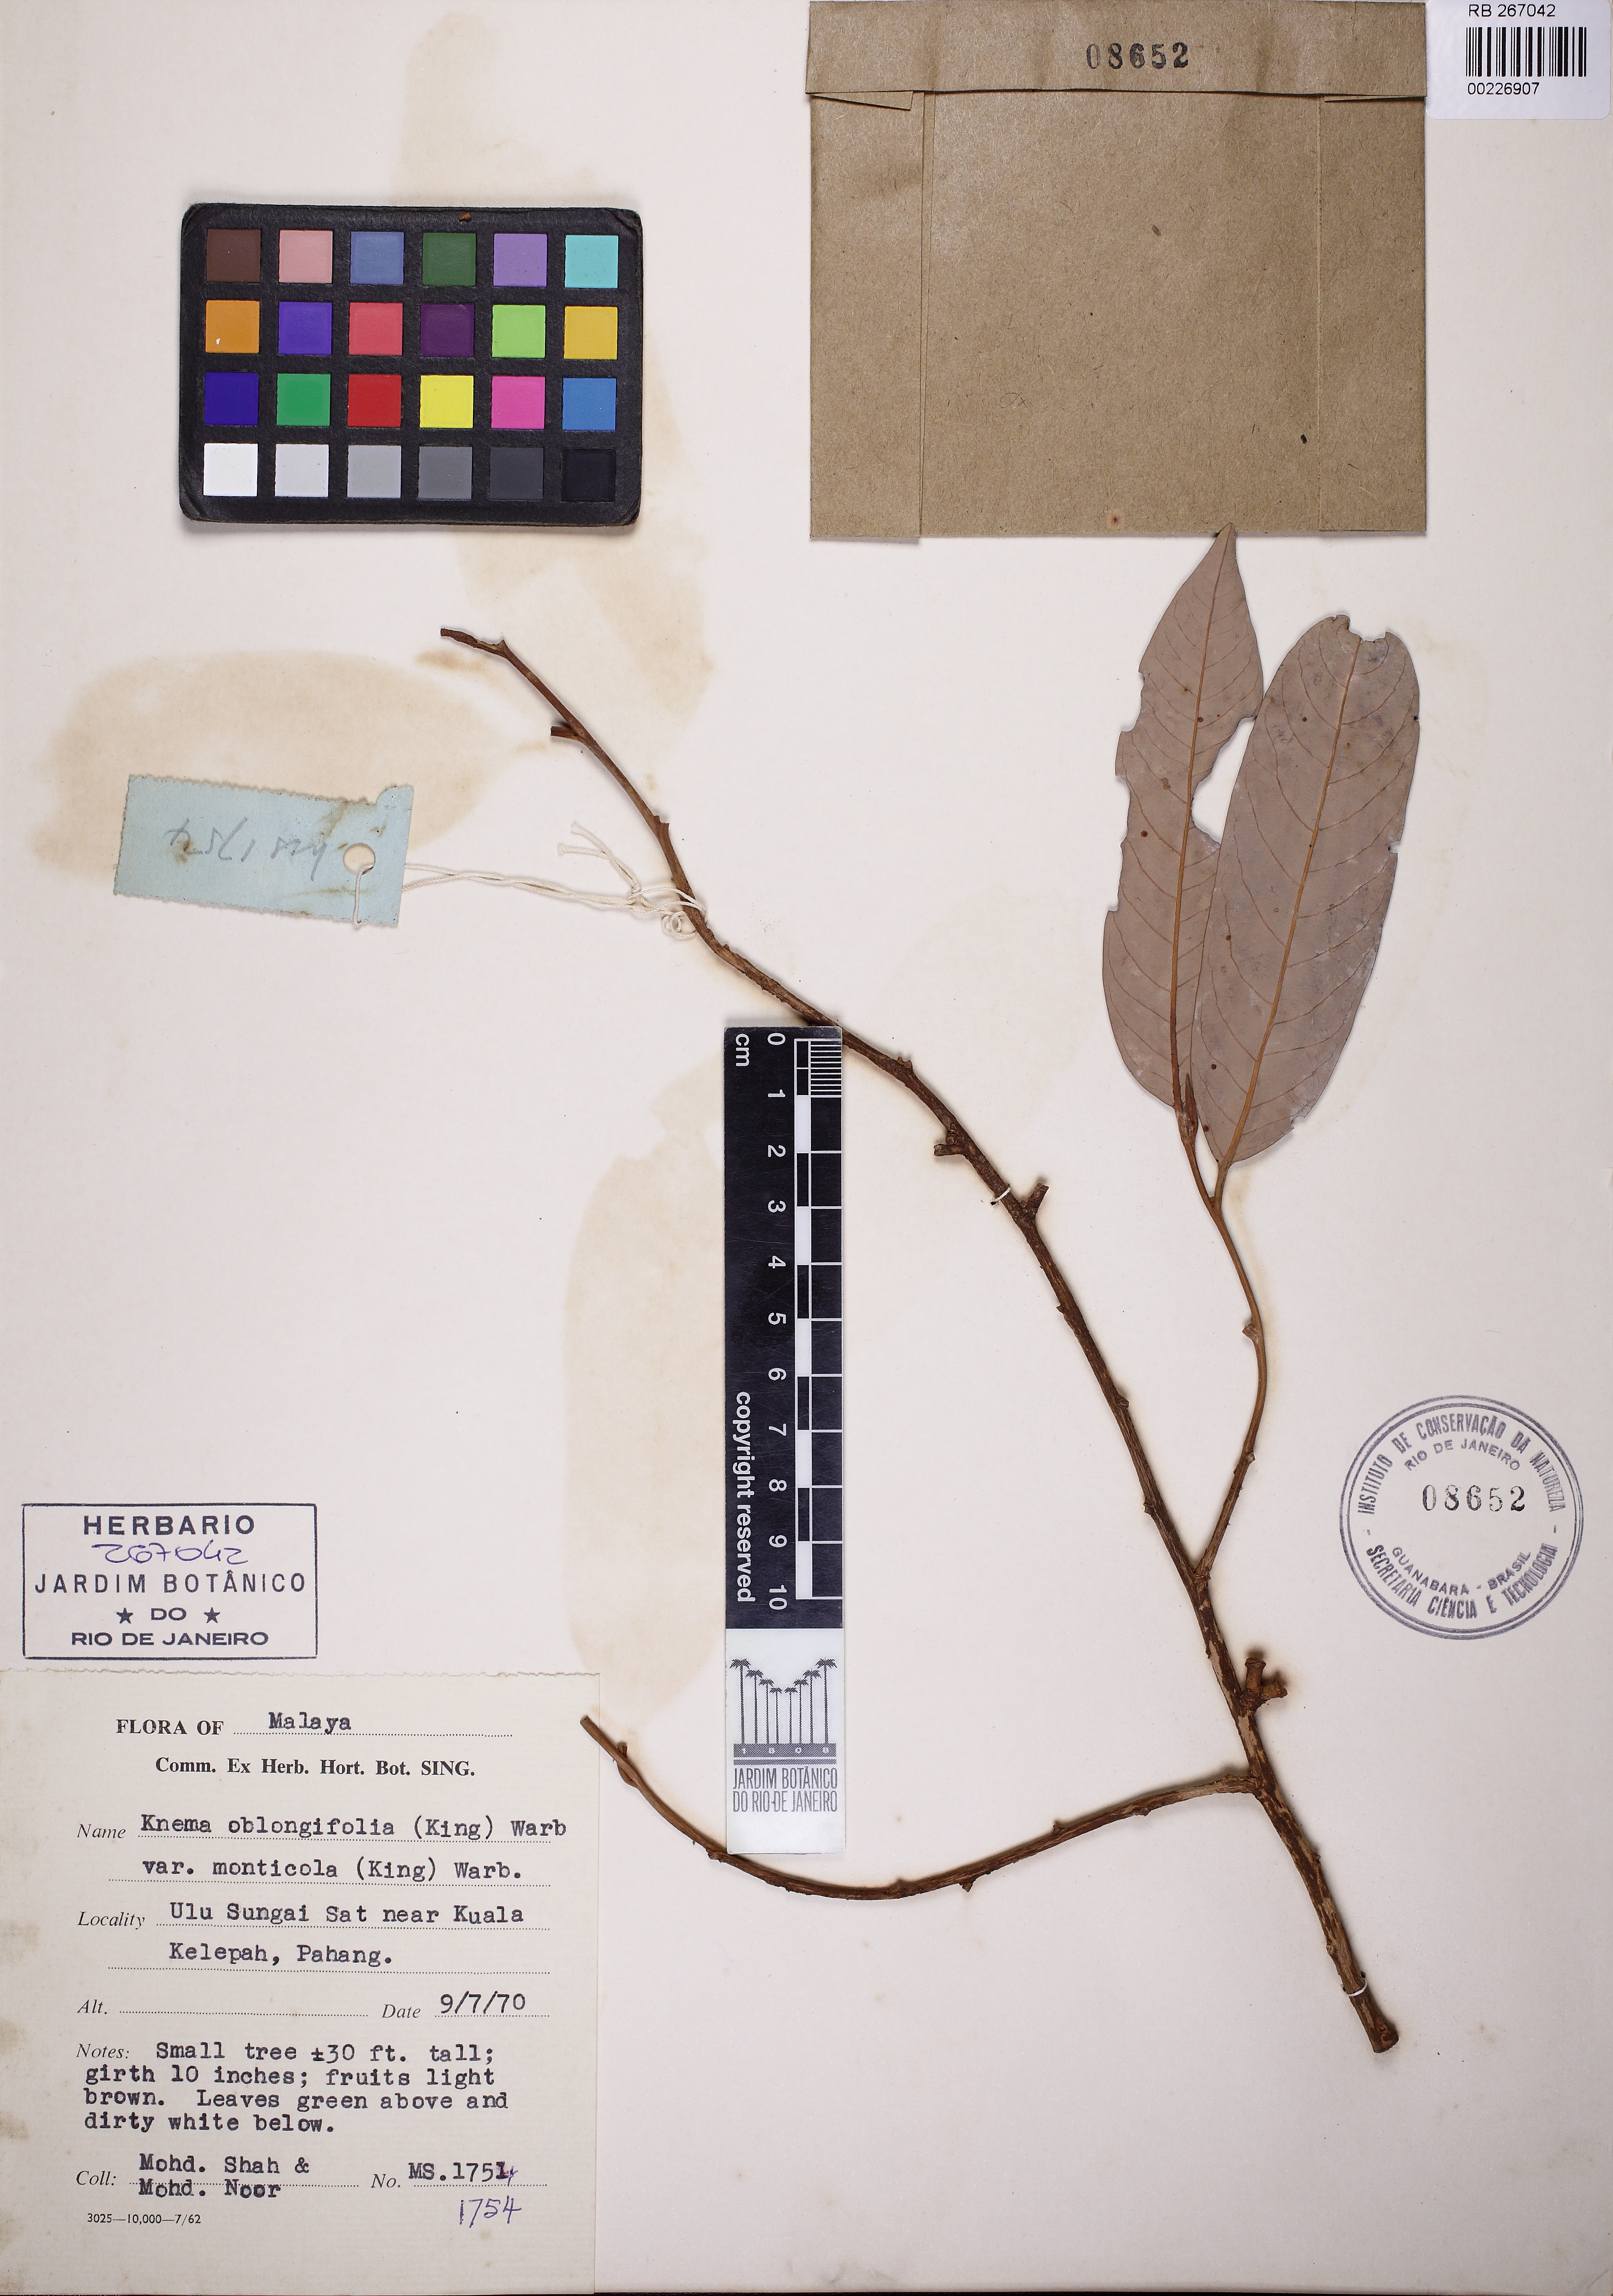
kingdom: Plantae
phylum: Tracheophyta
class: Magnoliopsida
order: Magnoliales
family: Myristicaceae
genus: Knema
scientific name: Knema oblongifolia
